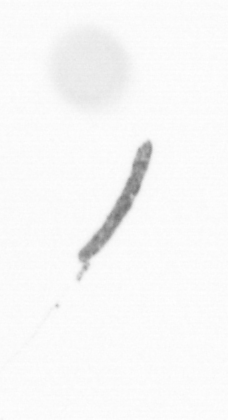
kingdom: Chromista
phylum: Ochrophyta
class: Bacillariophyceae
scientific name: Bacillariophyceae
